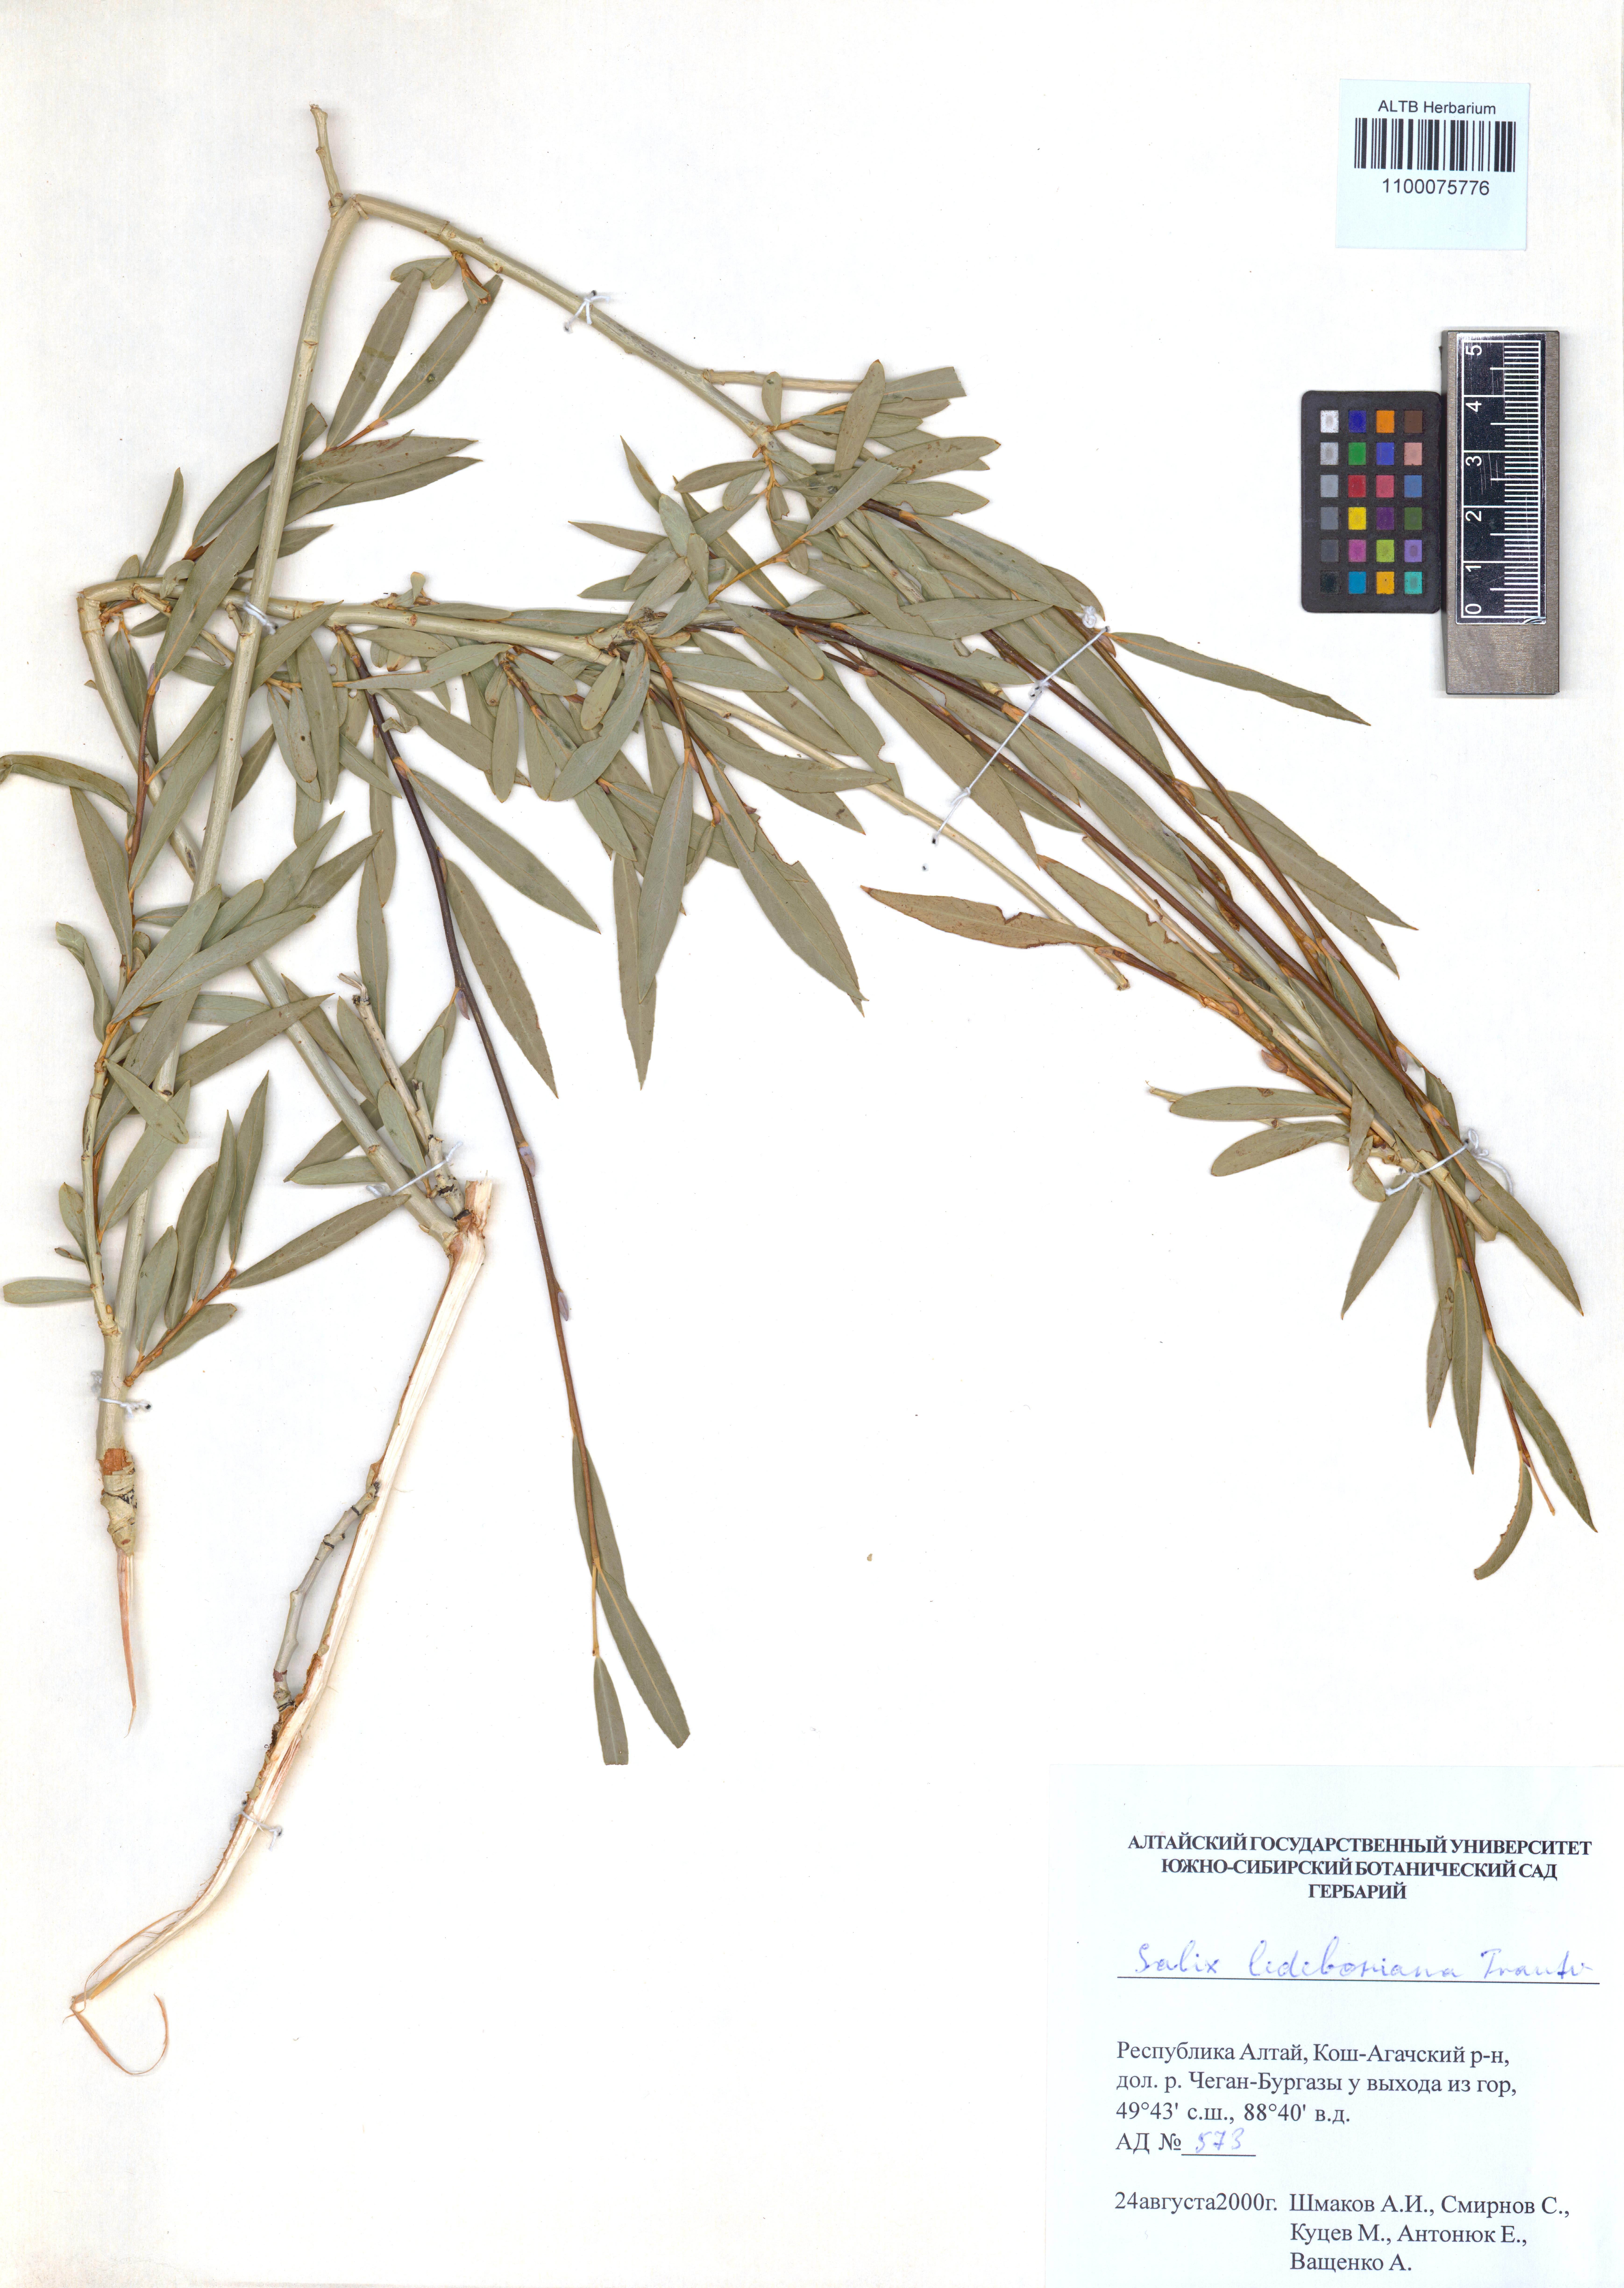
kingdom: Plantae
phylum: Tracheophyta
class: Magnoliopsida
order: Malpighiales
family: Salicaceae
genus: Salix
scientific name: Salix ledebouriana
